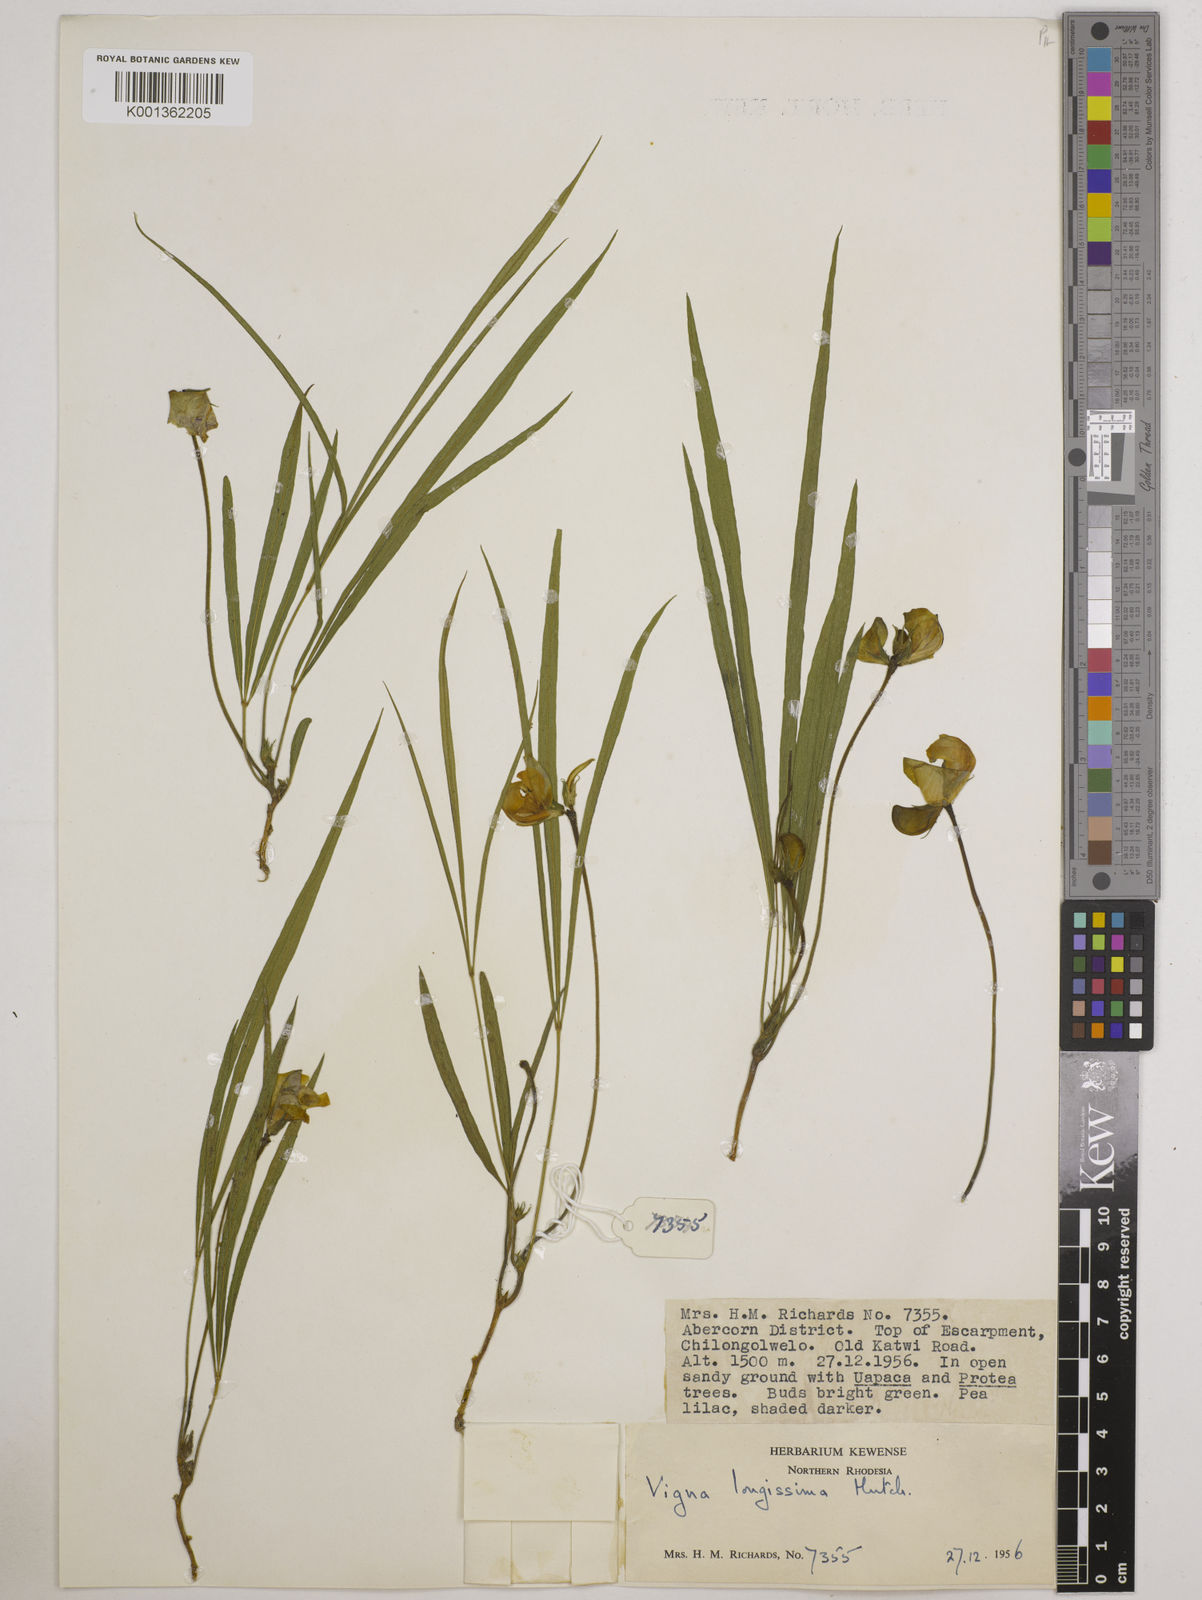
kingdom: Plantae
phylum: Tracheophyta
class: Magnoliopsida
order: Fabales
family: Fabaceae
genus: Vigna
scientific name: Vigna longissima
